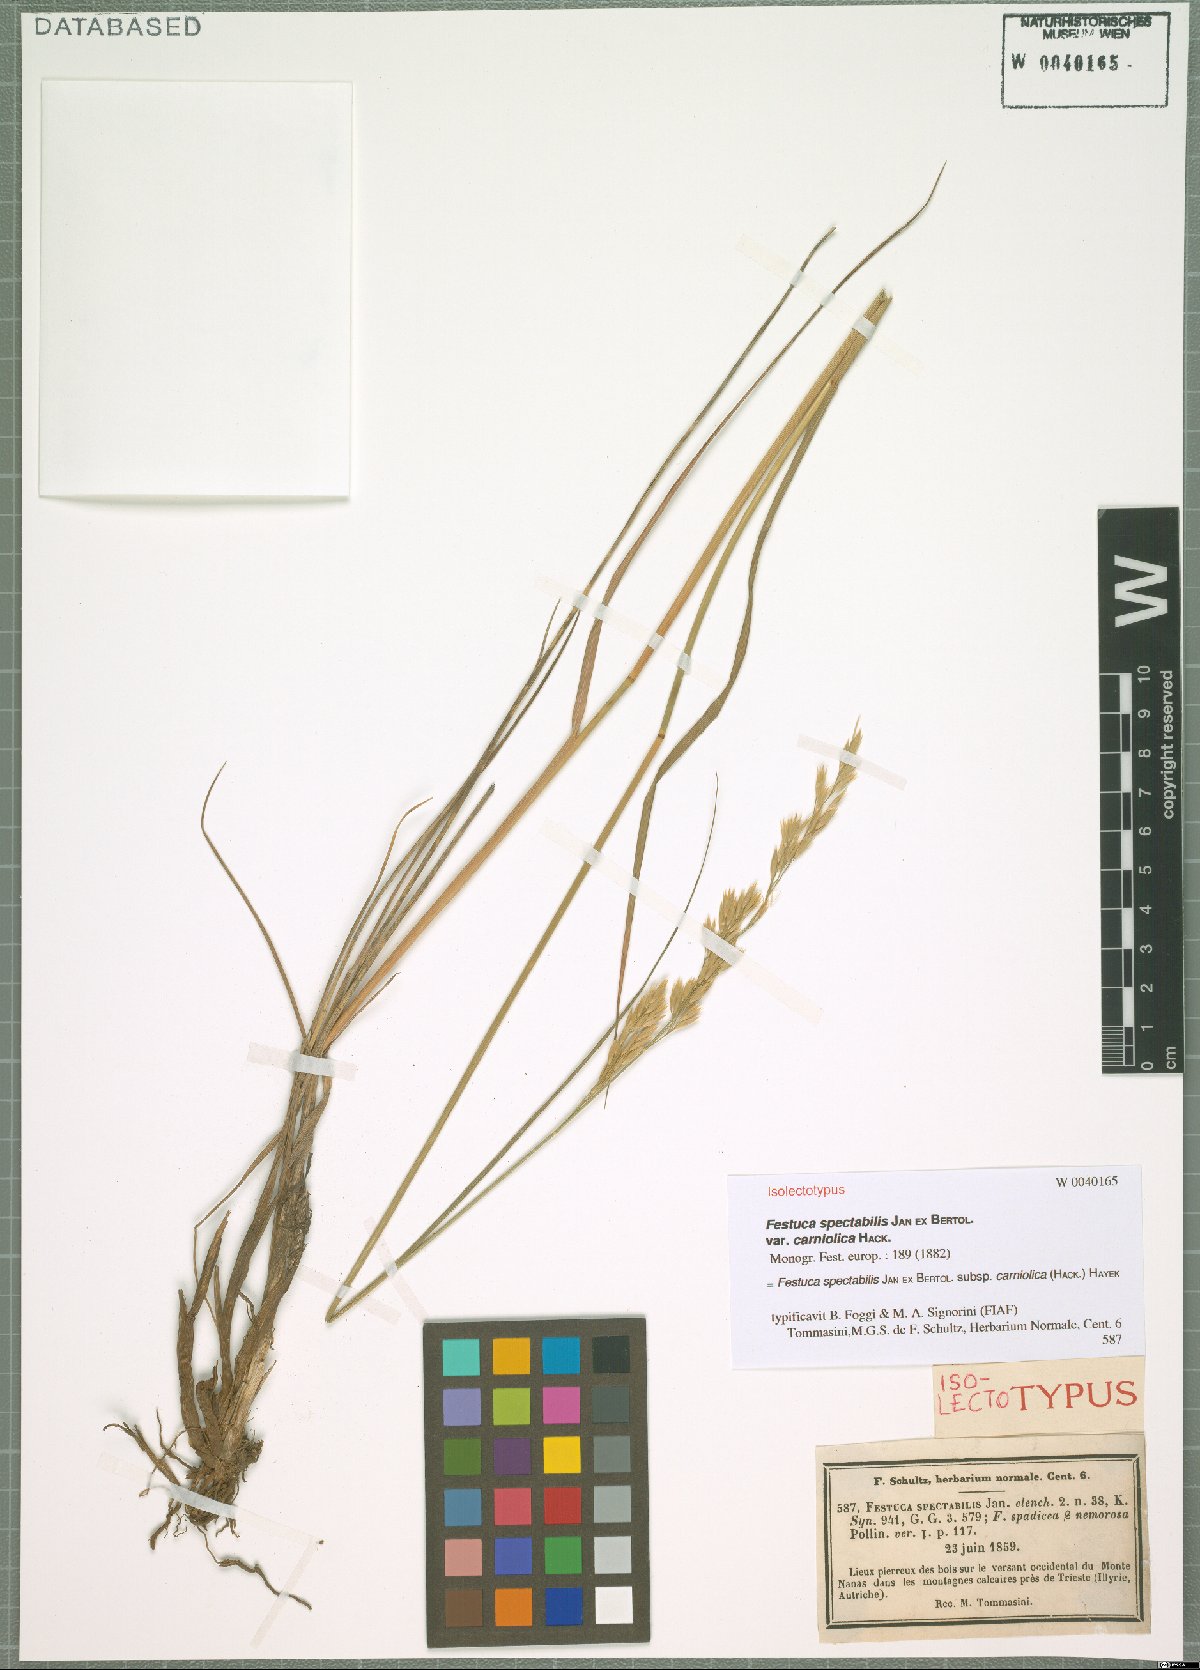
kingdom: Plantae
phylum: Tracheophyta
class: Liliopsida
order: Poales
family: Poaceae
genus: Festuca
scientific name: Festuca spectabilis
